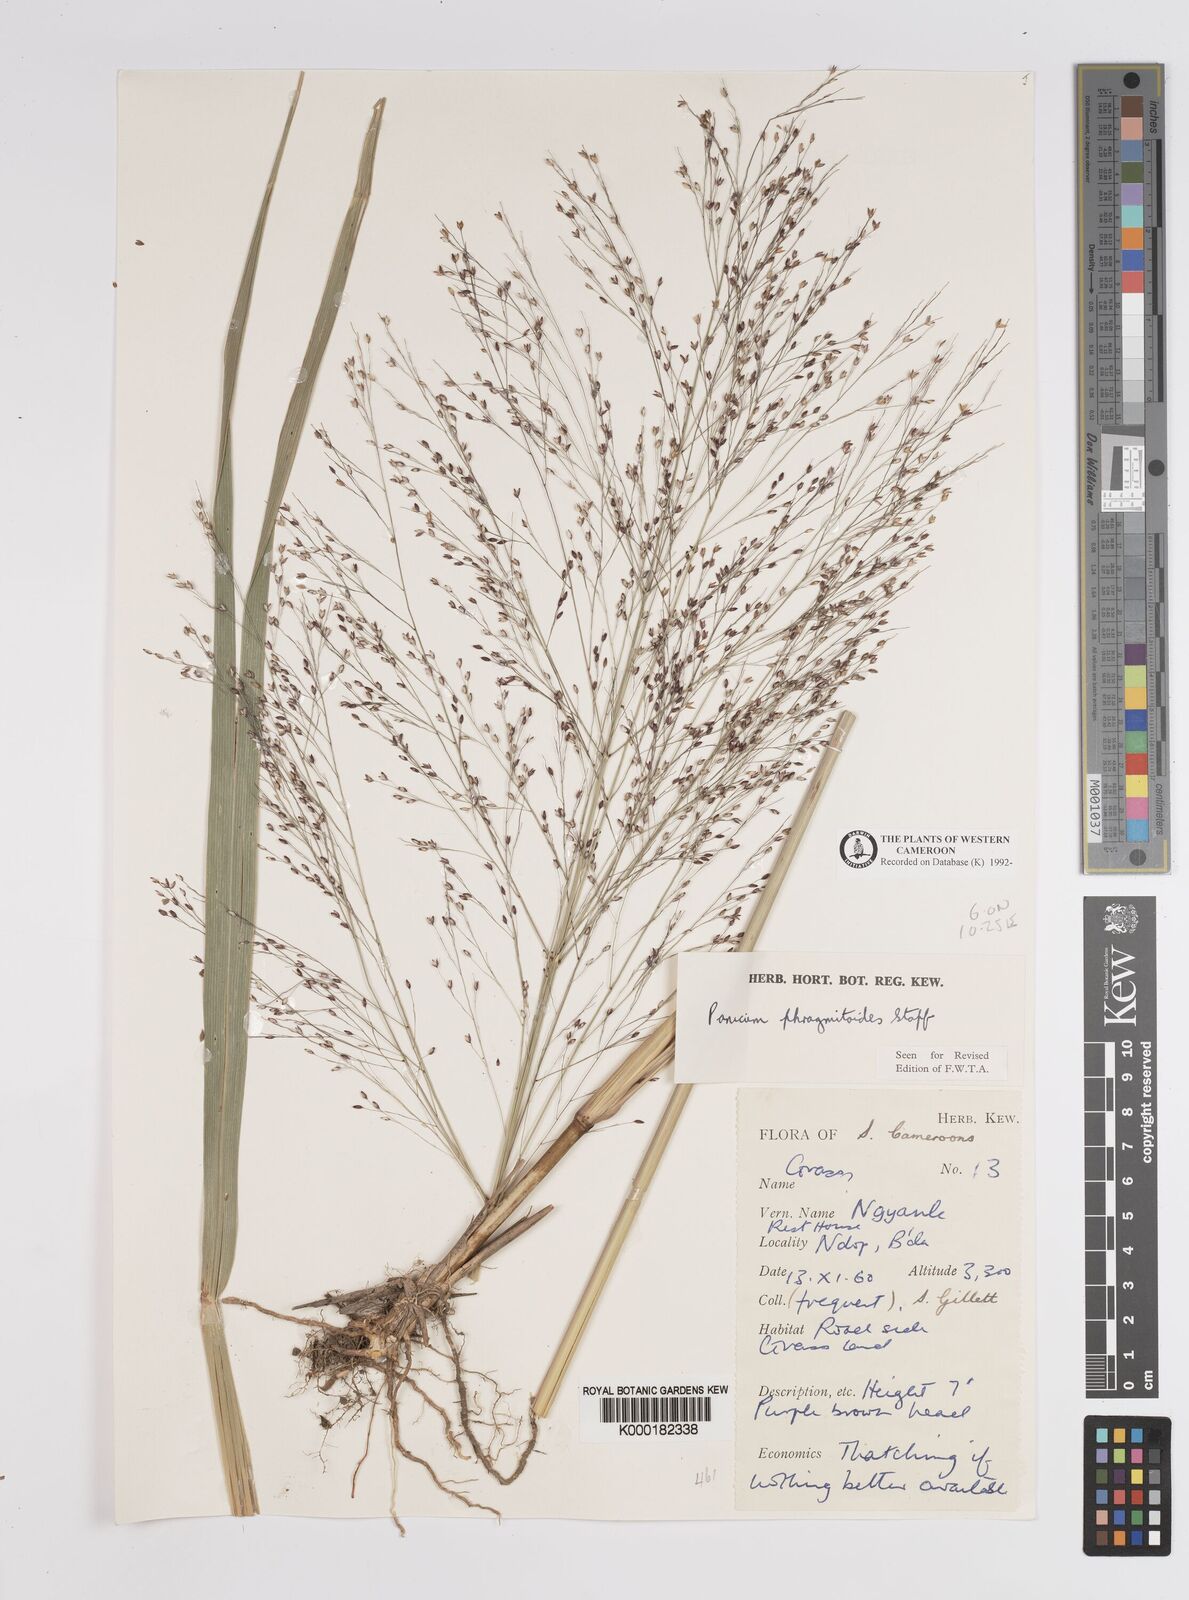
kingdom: Plantae
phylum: Tracheophyta
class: Liliopsida
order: Poales
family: Poaceae
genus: Panicum
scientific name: Panicum phragmitoides
